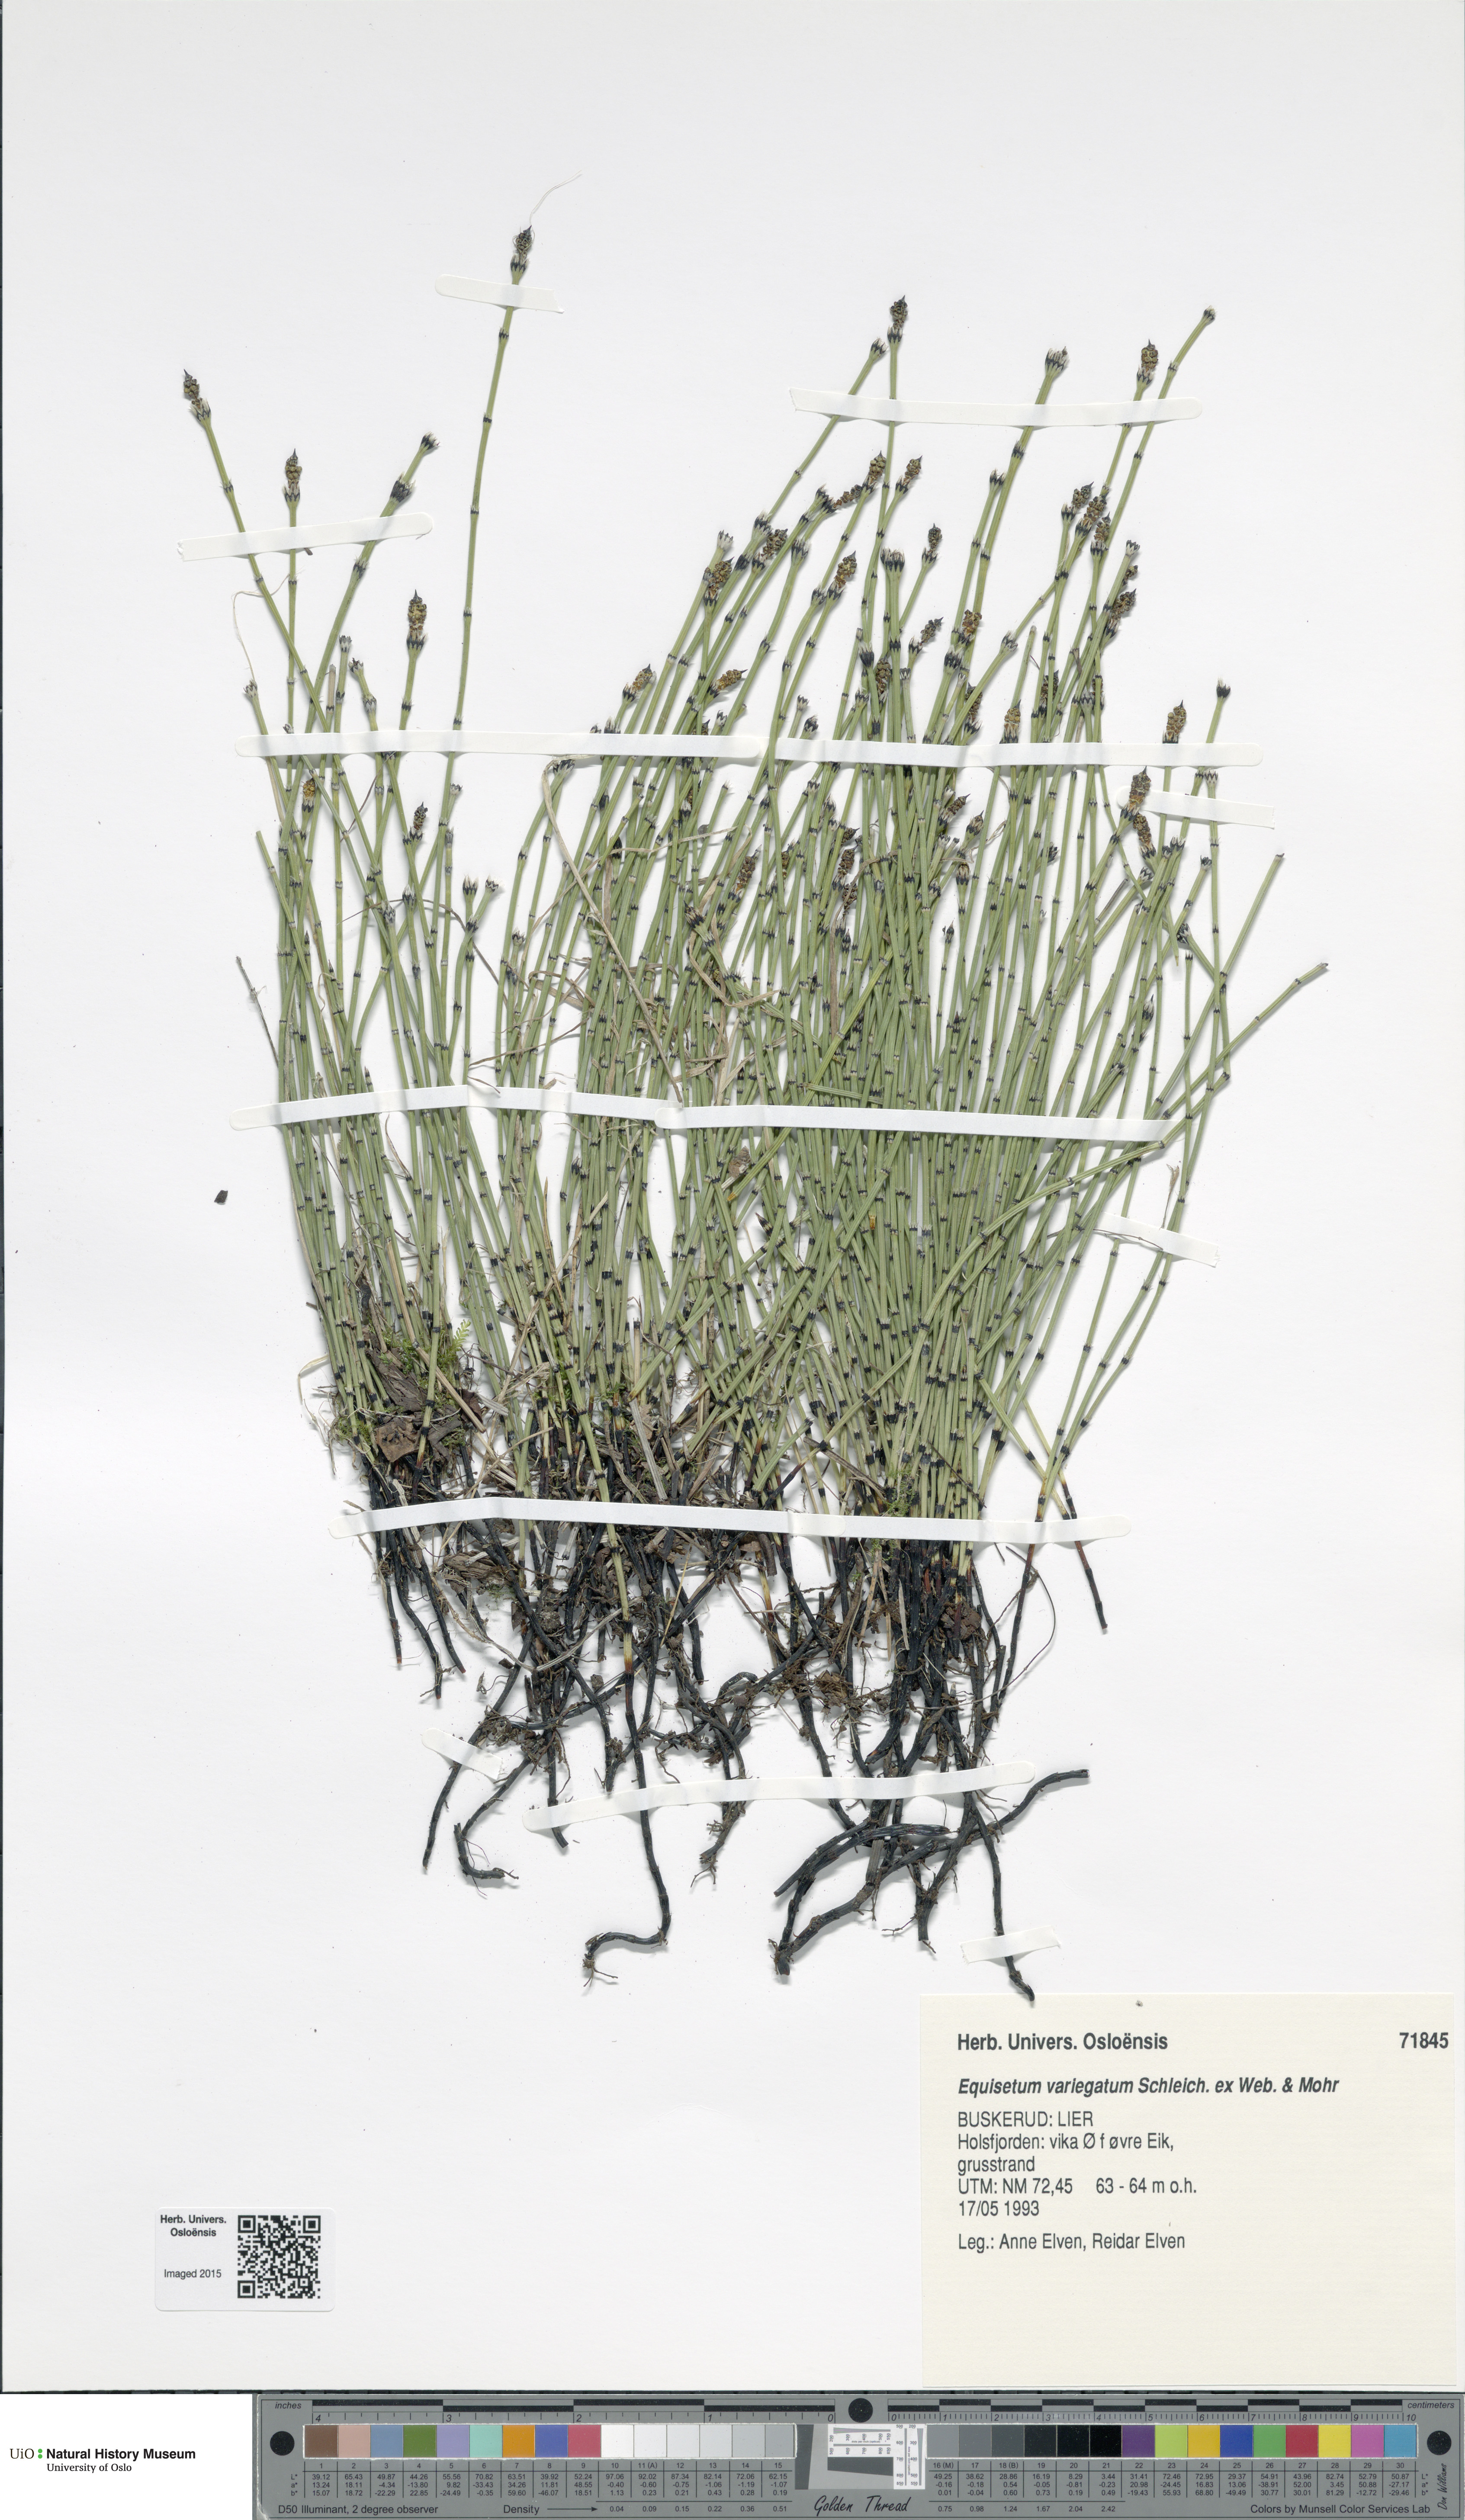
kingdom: Plantae
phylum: Tracheophyta
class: Polypodiopsida
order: Equisetales
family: Equisetaceae
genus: Equisetum
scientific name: Equisetum variegatum
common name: Variegated horsetail
